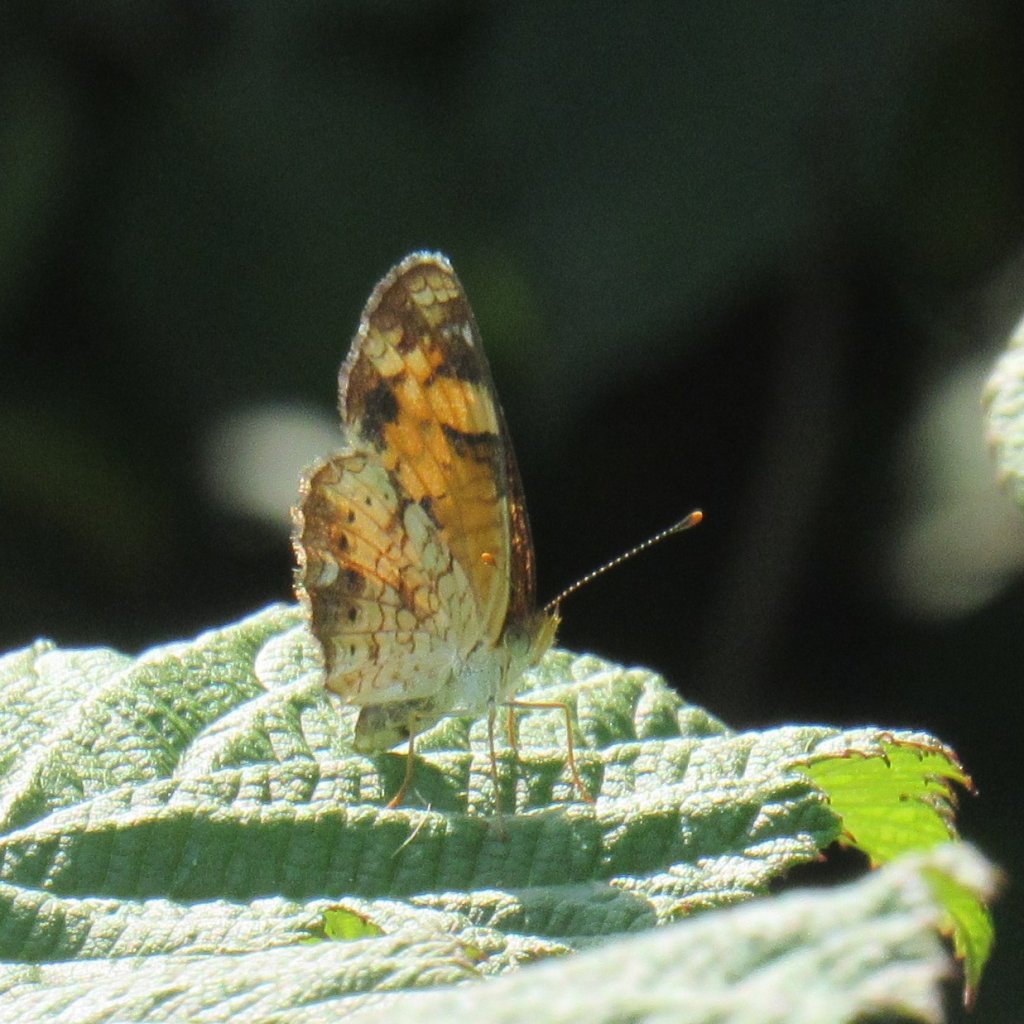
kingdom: Animalia
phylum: Arthropoda
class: Insecta
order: Lepidoptera
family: Nymphalidae
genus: Phyciodes
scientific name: Phyciodes tharos
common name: Pearl Crescent
